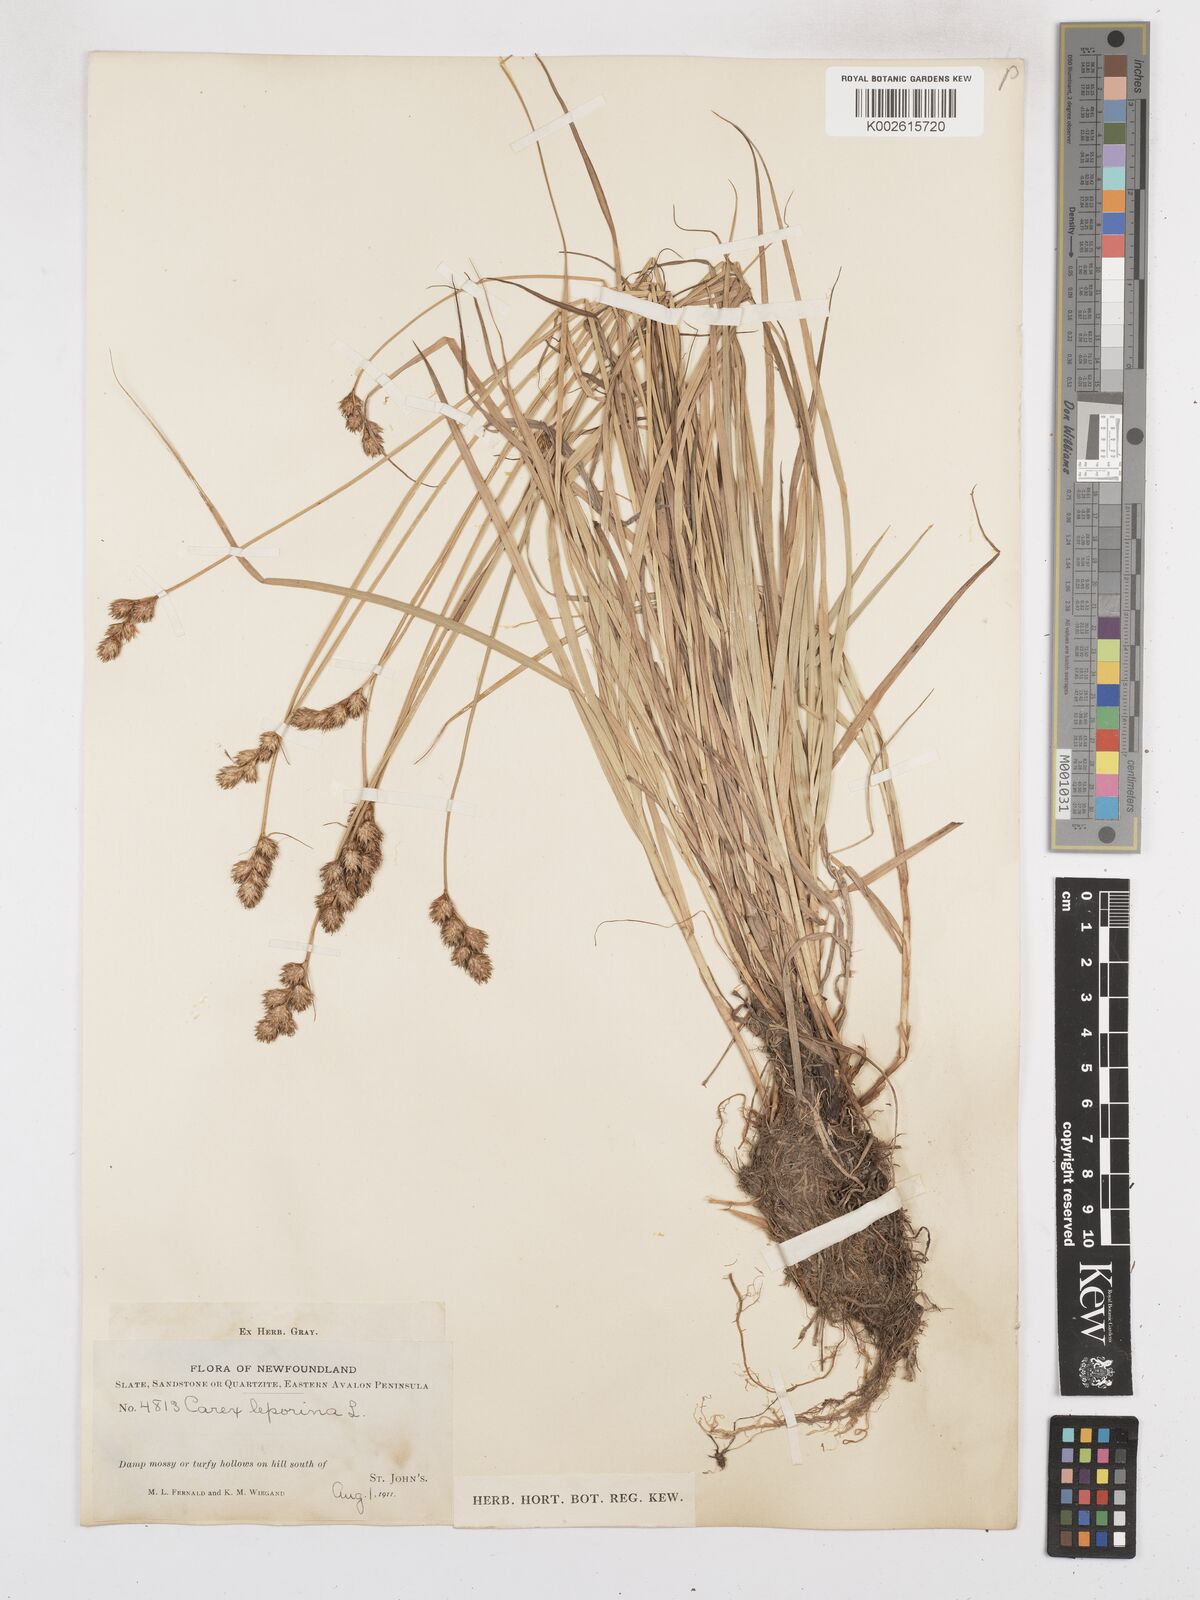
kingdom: Plantae
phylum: Tracheophyta
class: Liliopsida
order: Poales
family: Cyperaceae
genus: Carex
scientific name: Carex leporina
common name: Oval sedge
